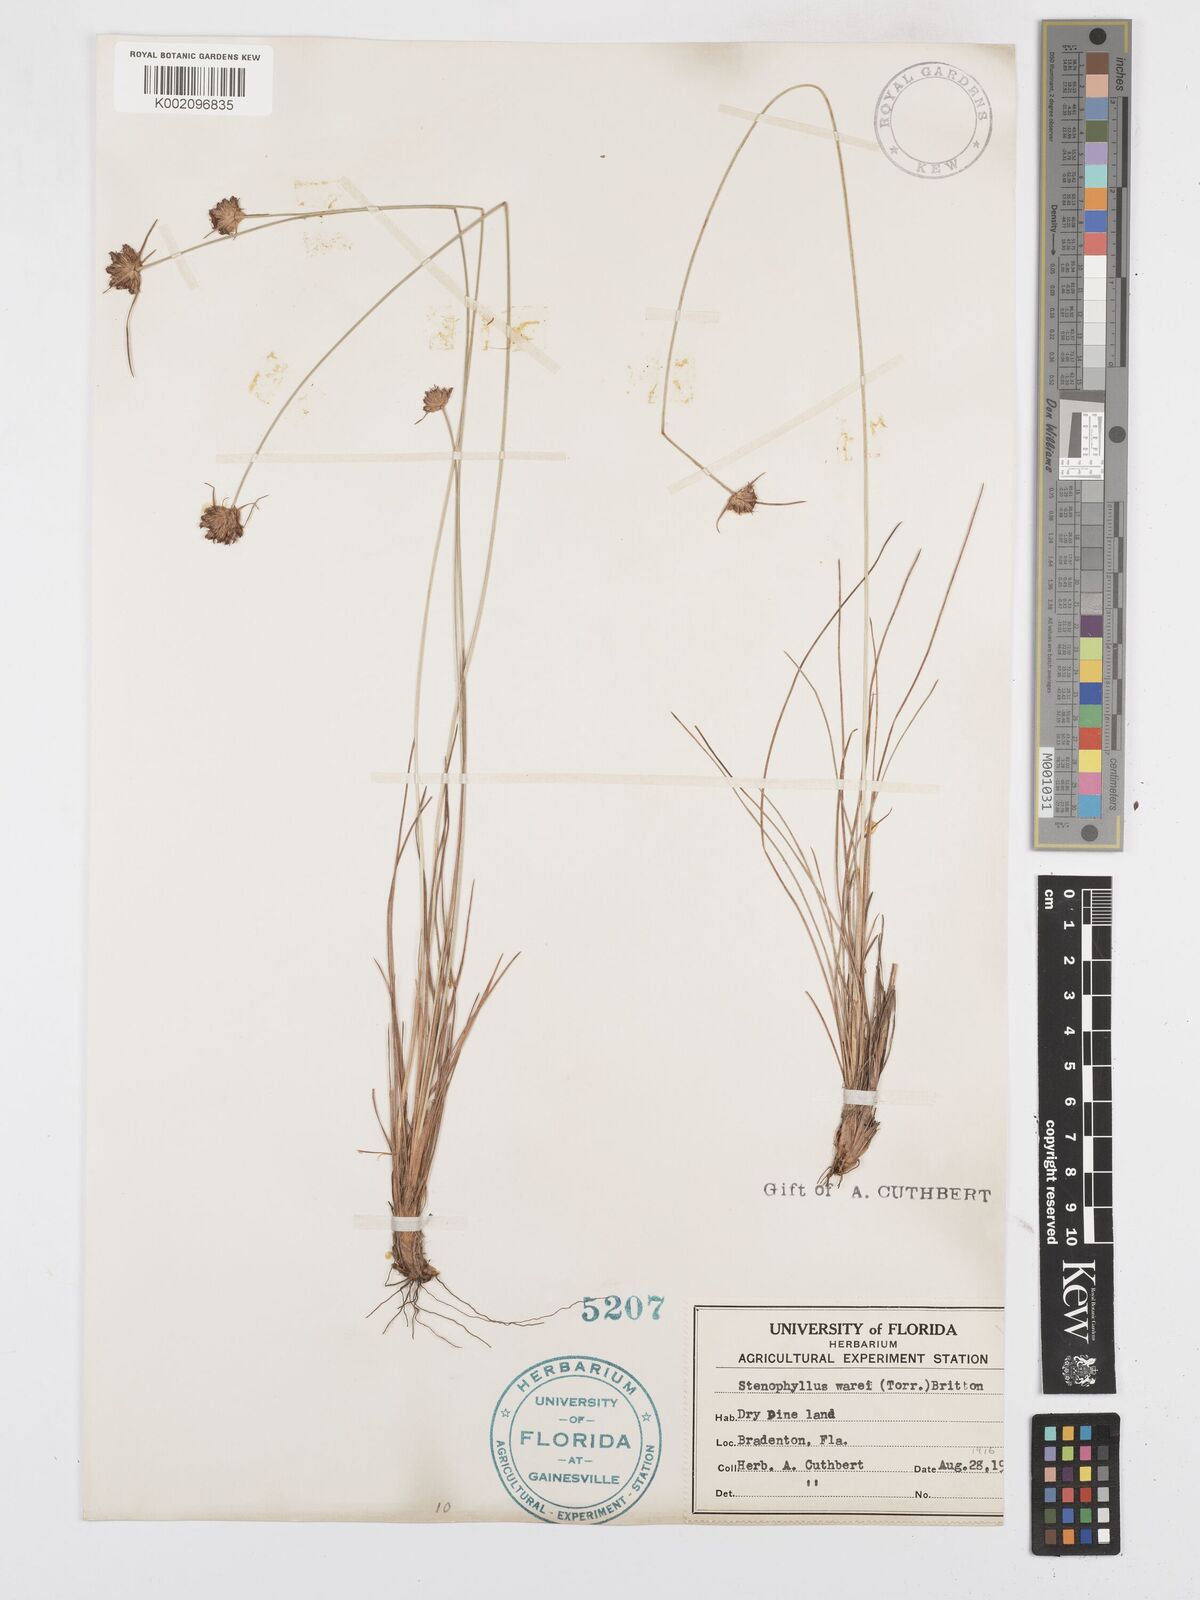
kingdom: Plantae
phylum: Tracheophyta
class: Liliopsida
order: Poales
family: Cyperaceae
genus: Bulbostylis
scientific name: Bulbostylis warei
